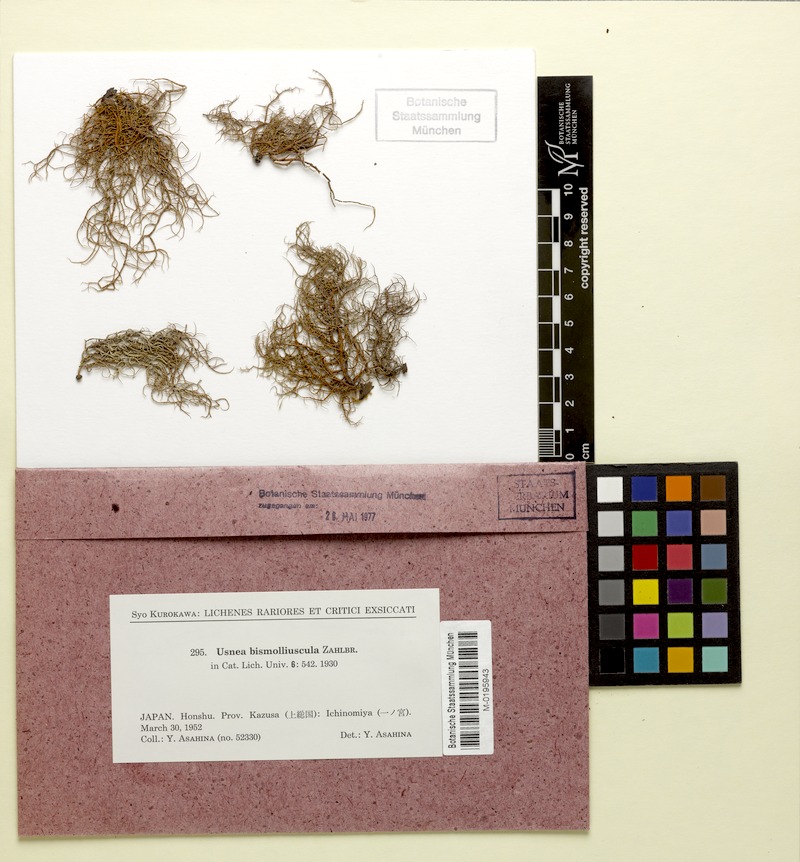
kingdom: Fungi
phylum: Ascomycota
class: Lecanoromycetes
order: Lecanorales
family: Parmeliaceae
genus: Usnea
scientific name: Usnea bismolliuscula
